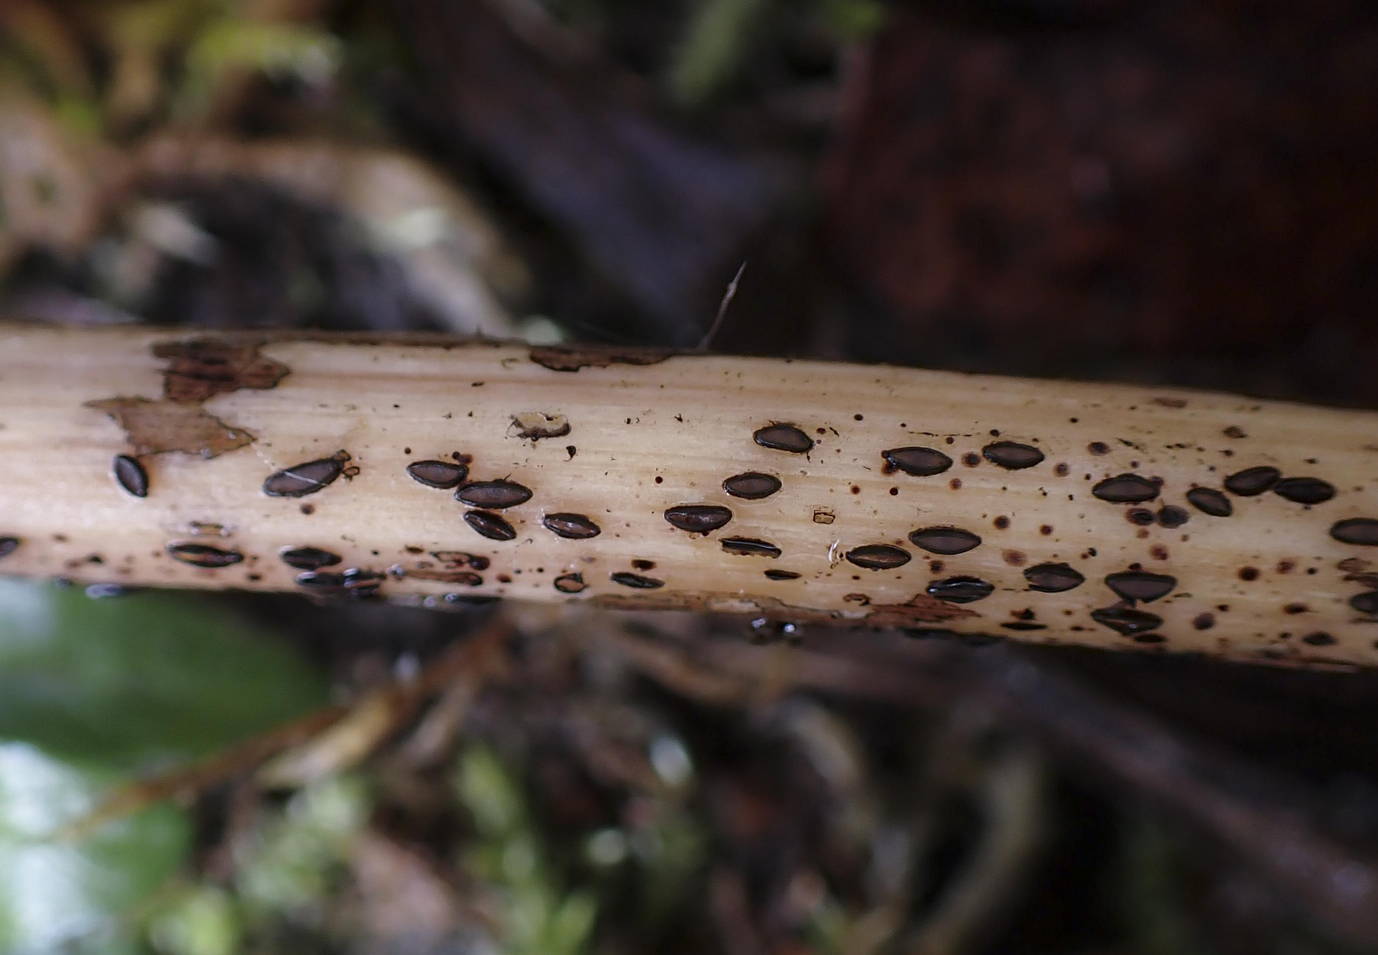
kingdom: Fungi
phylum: Ascomycota
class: Leotiomycetes
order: Rhytismatales
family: Rhytismataceae
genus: Hypoderma
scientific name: Hypoderma commune
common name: urte-fureplet
